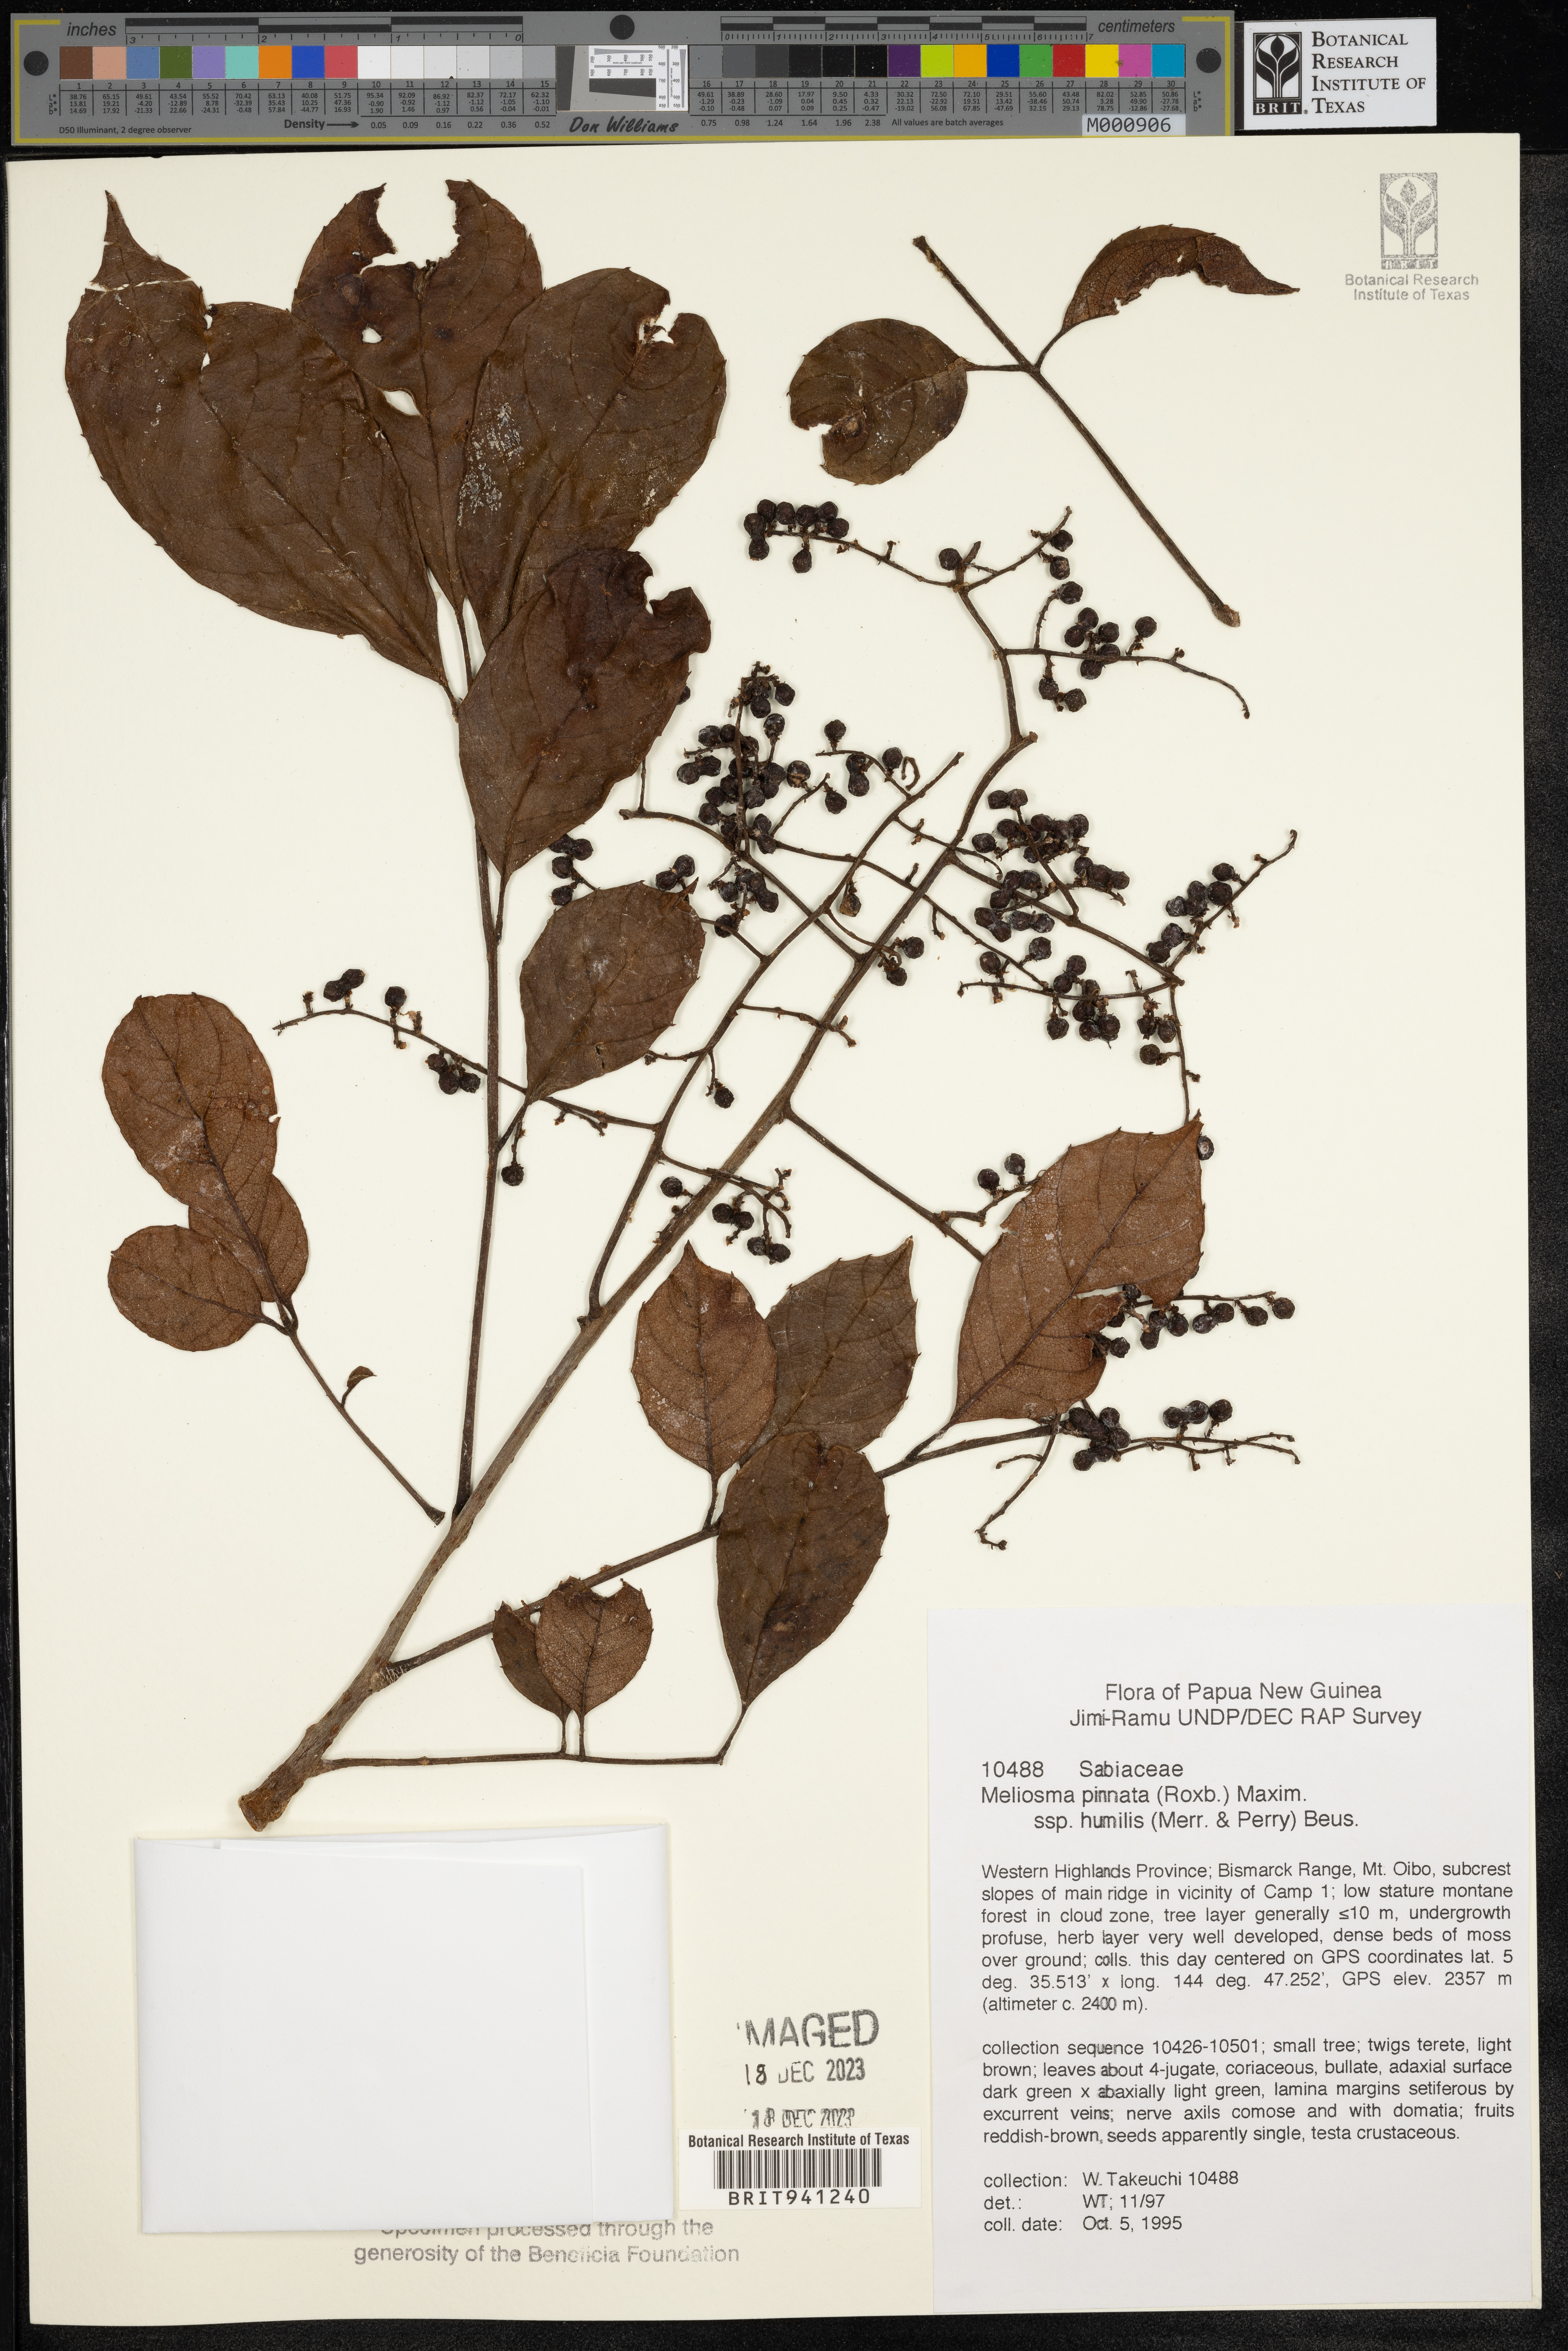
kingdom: Plantae
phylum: Tracheophyta
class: Magnoliopsida
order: Proteales
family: Sabiaceae
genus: Meliosma
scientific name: Meliosma
